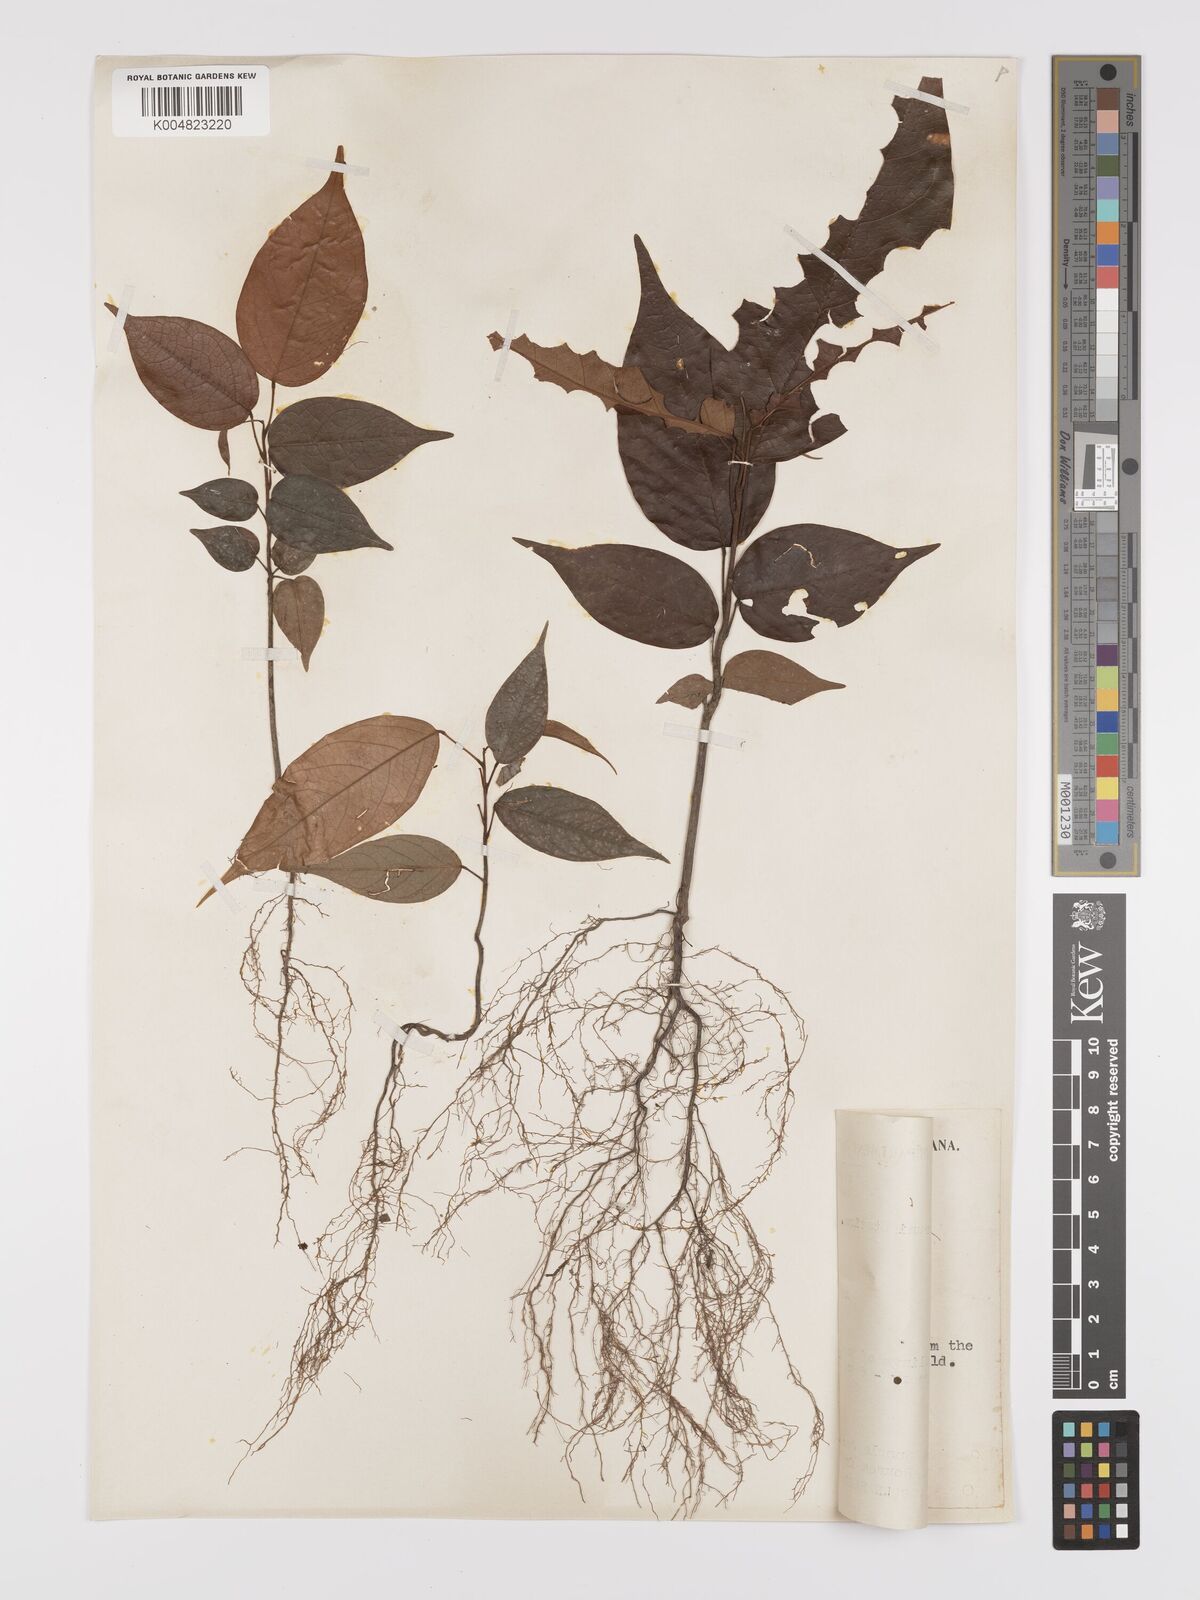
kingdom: Plantae
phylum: Tracheophyta
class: Magnoliopsida
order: Oxalidales
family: Connaraceae
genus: Rourea
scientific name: Rourea frutescens
